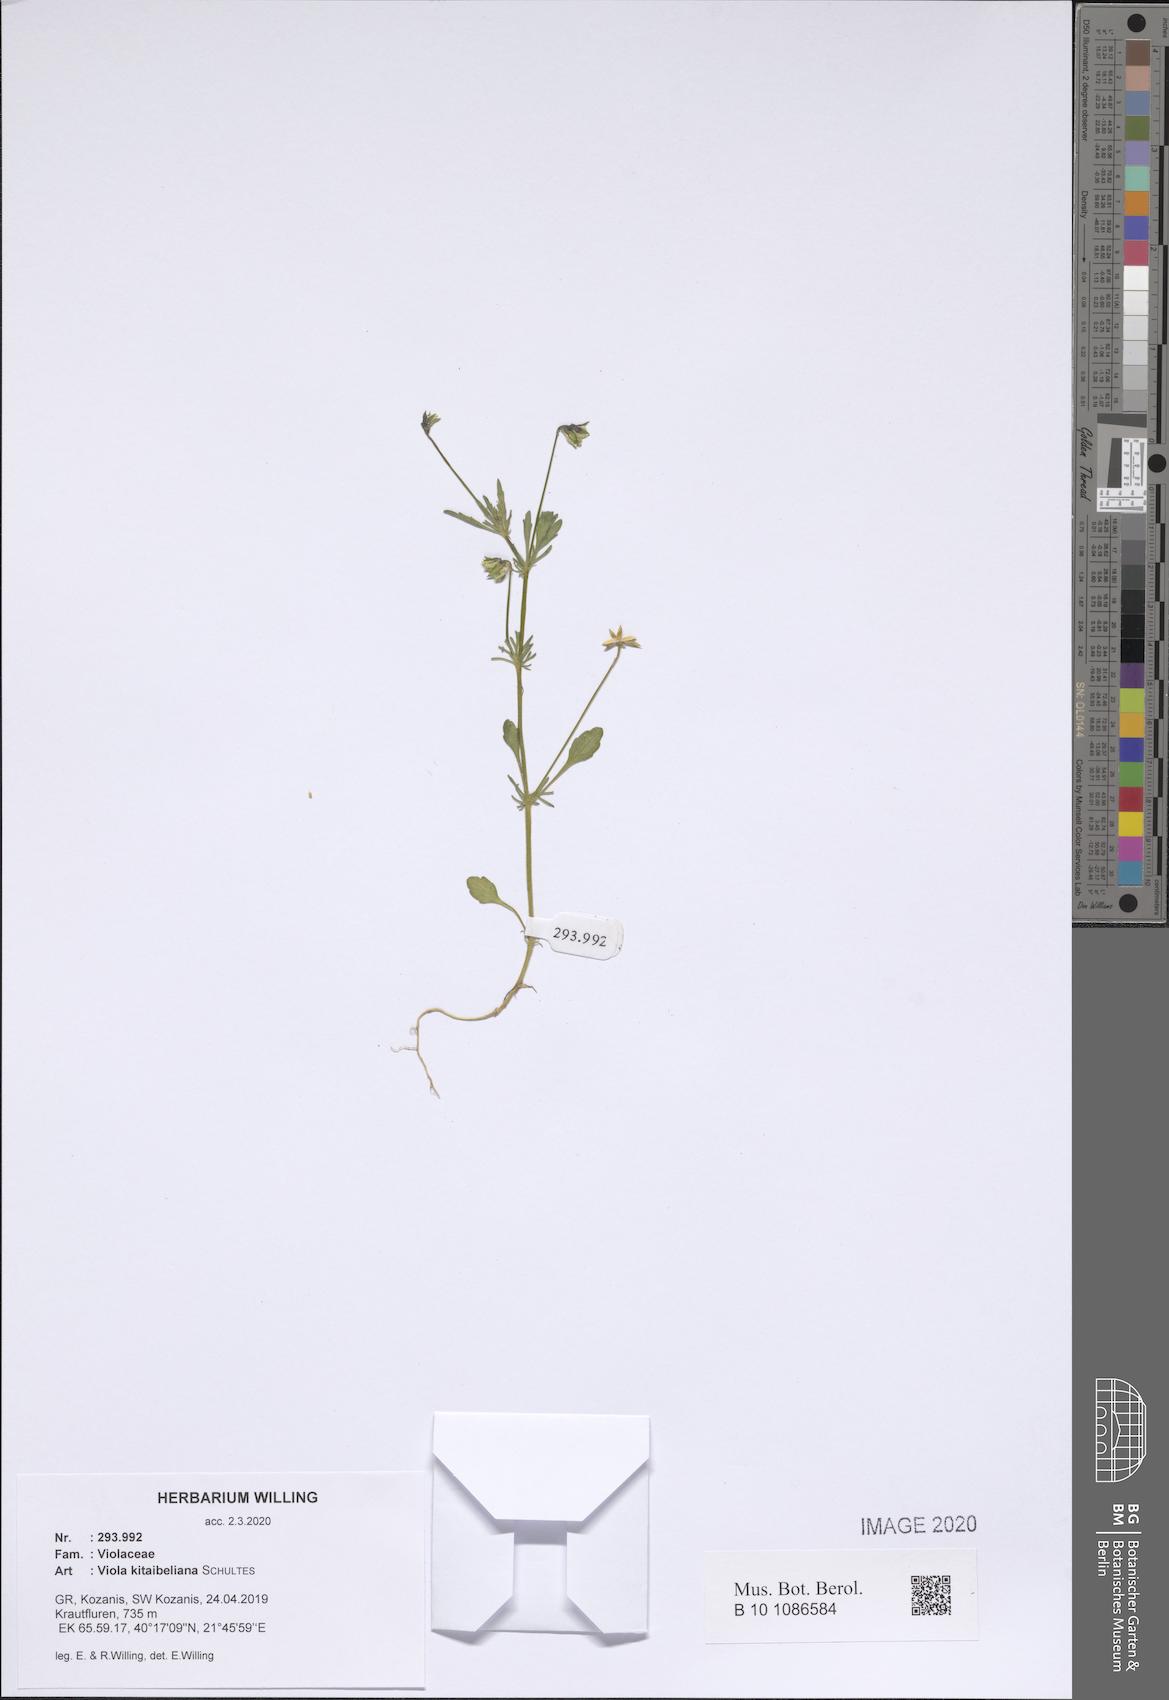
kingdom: Plantae
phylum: Tracheophyta
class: Magnoliopsida
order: Malpighiales
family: Violaceae
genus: Viola
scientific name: Viola kitaibeliana
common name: Dwarf pansy
